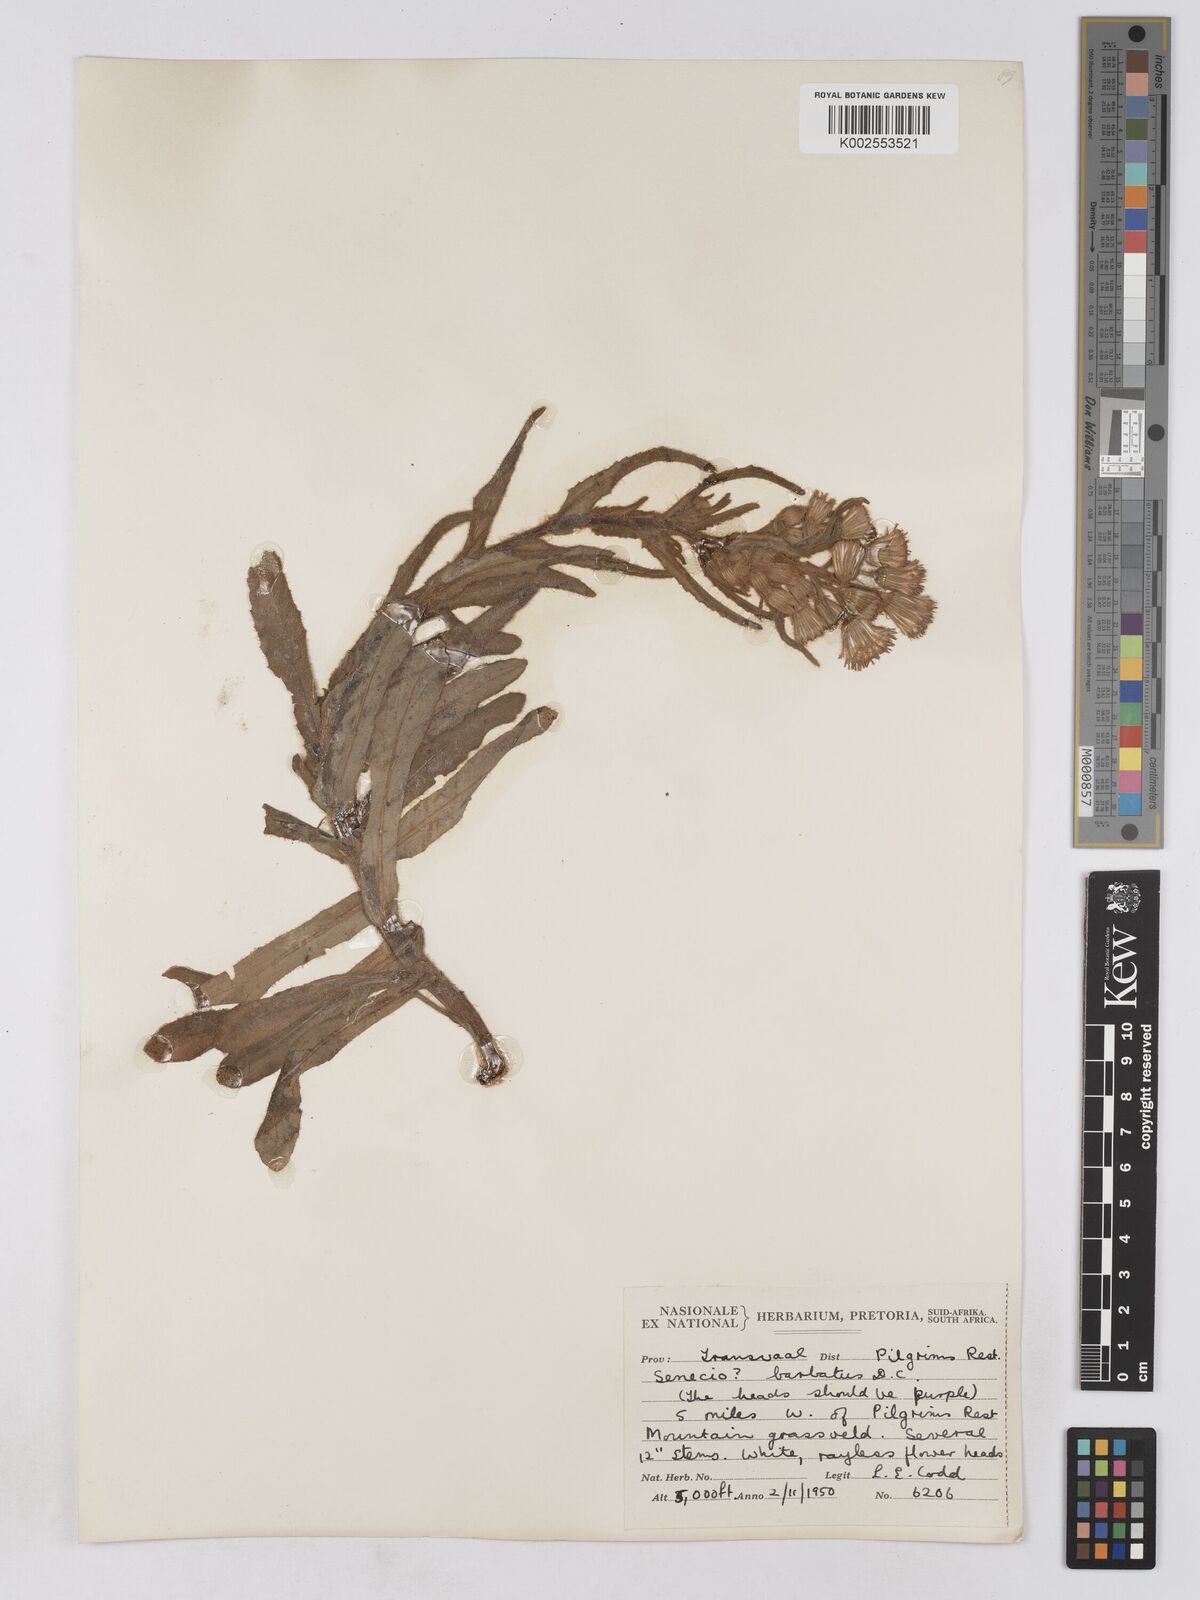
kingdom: Plantae
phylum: Tracheophyta
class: Magnoliopsida
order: Asterales
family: Asteraceae
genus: Senecio
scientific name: Senecio barbatus
